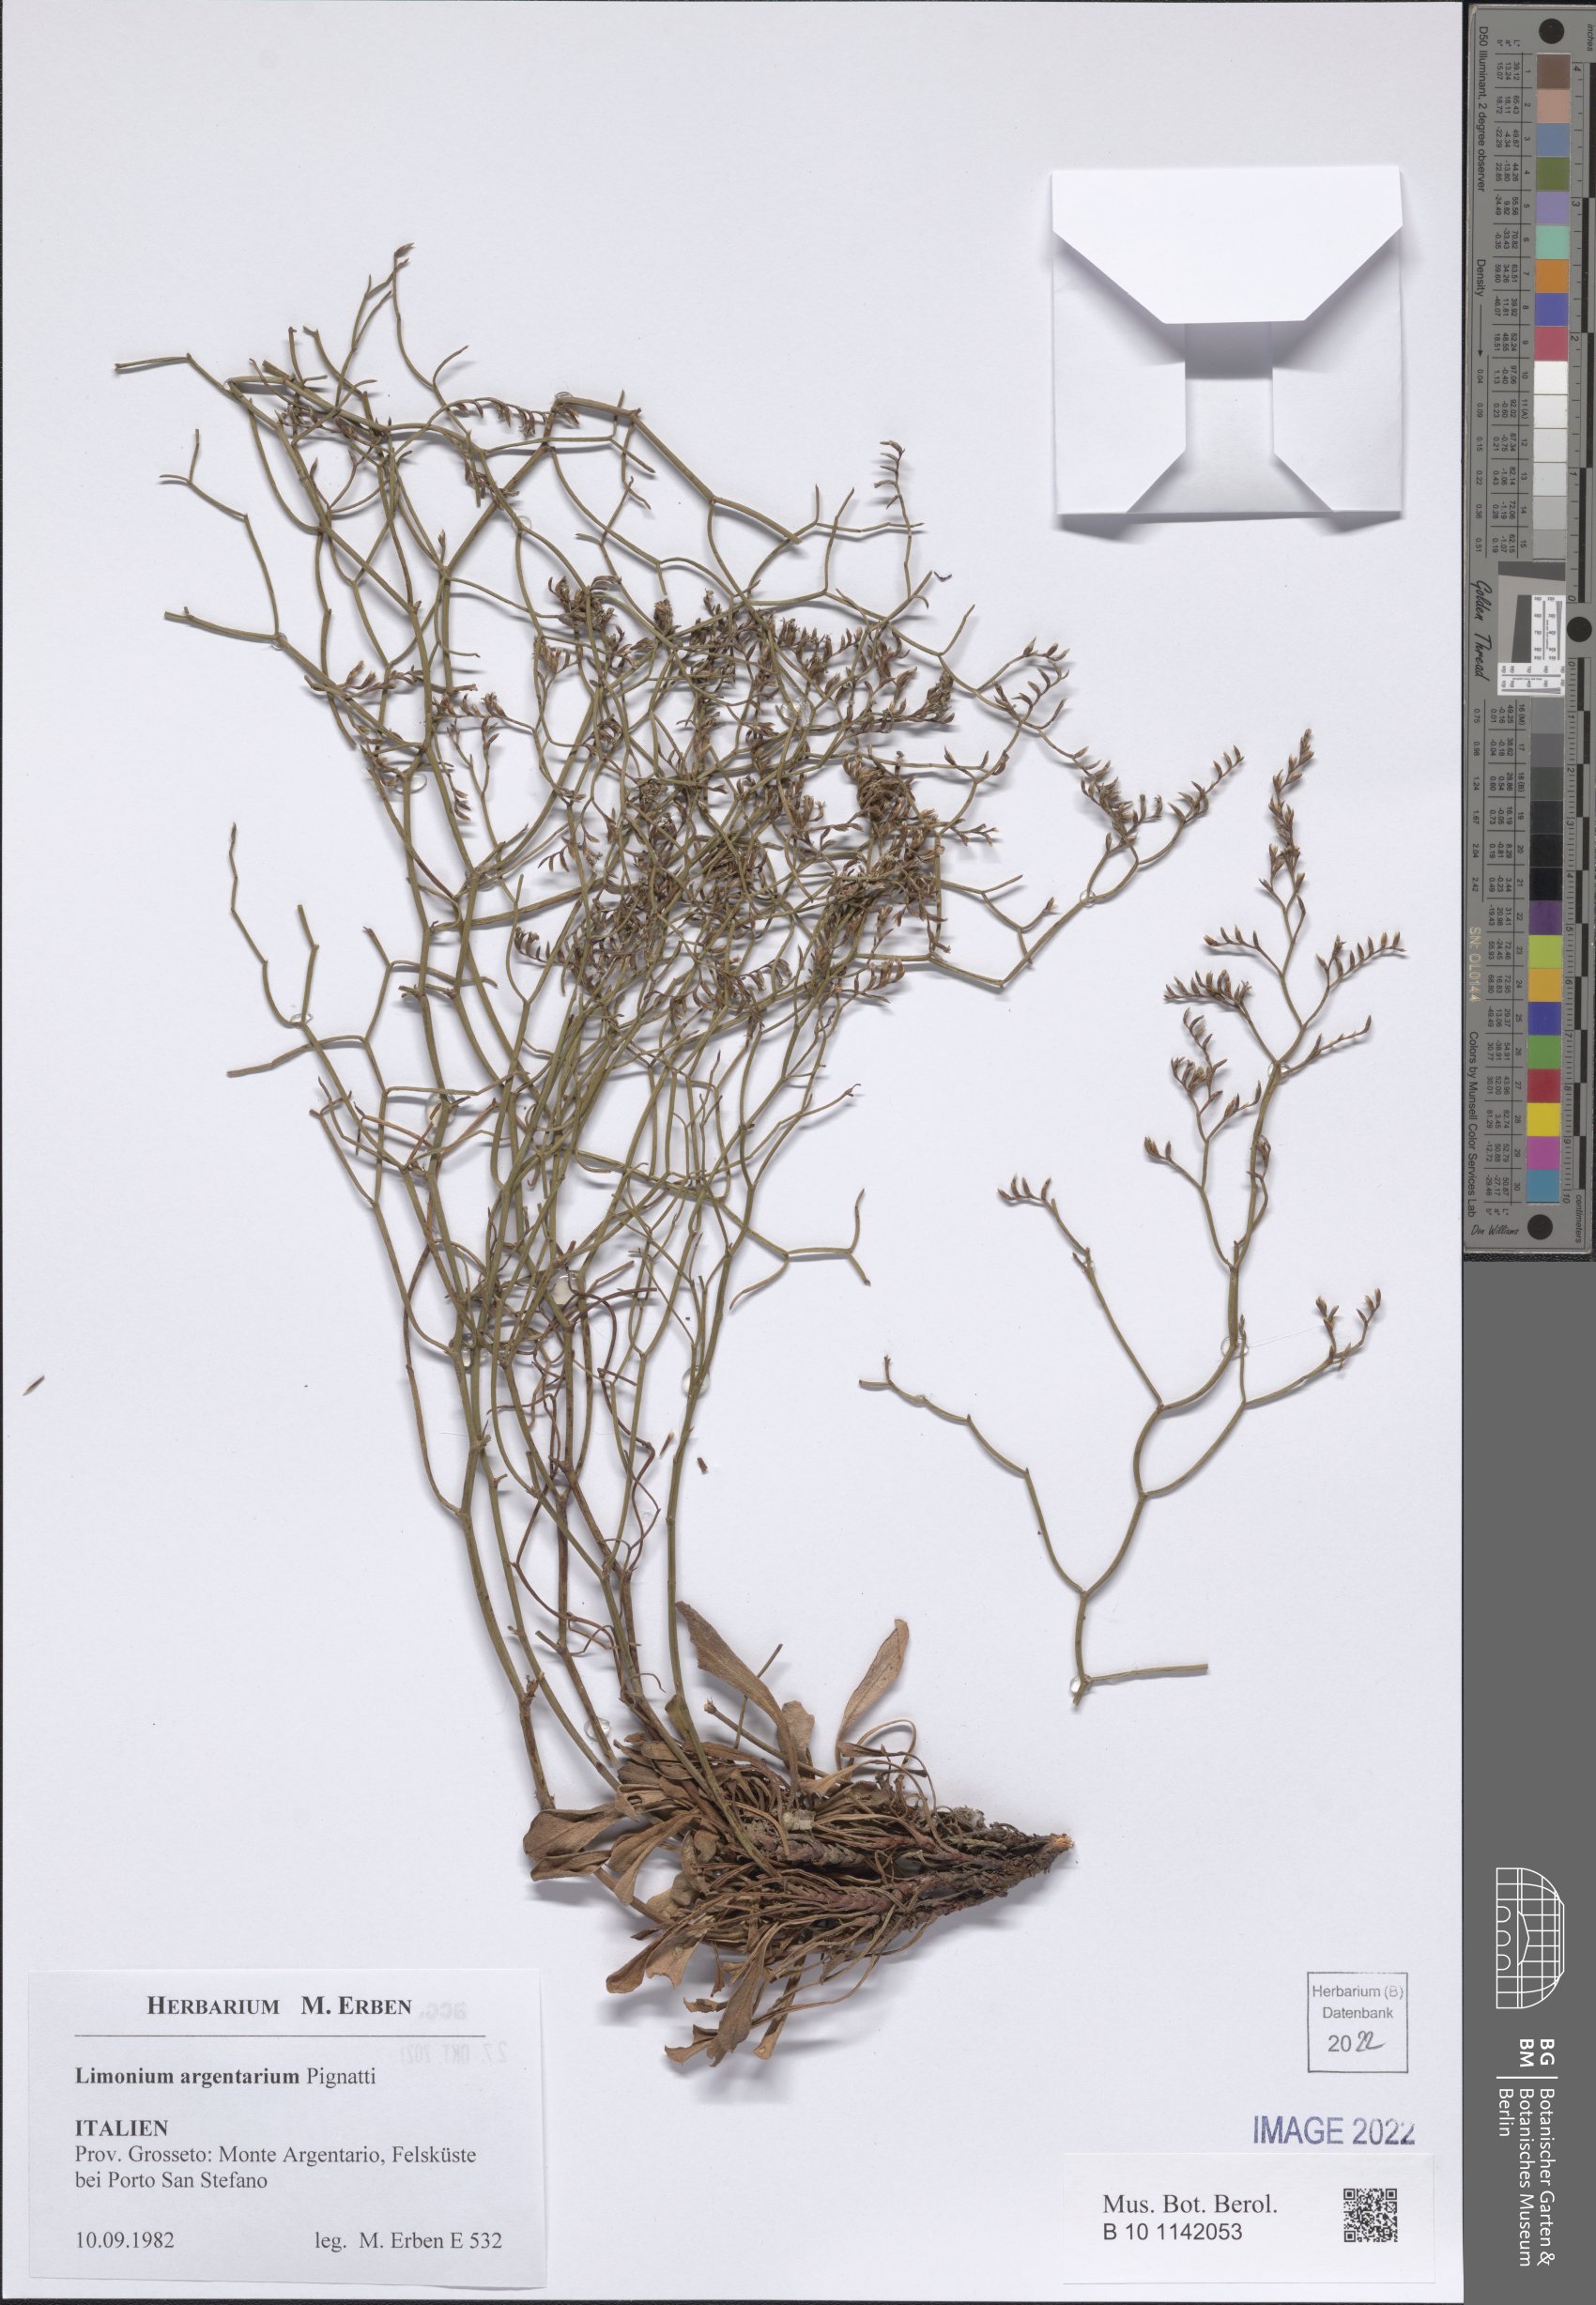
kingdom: Plantae
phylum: Tracheophyta
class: Magnoliopsida
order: Caryophyllales
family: Plumbaginaceae
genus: Limonium
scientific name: Limonium multiforme
